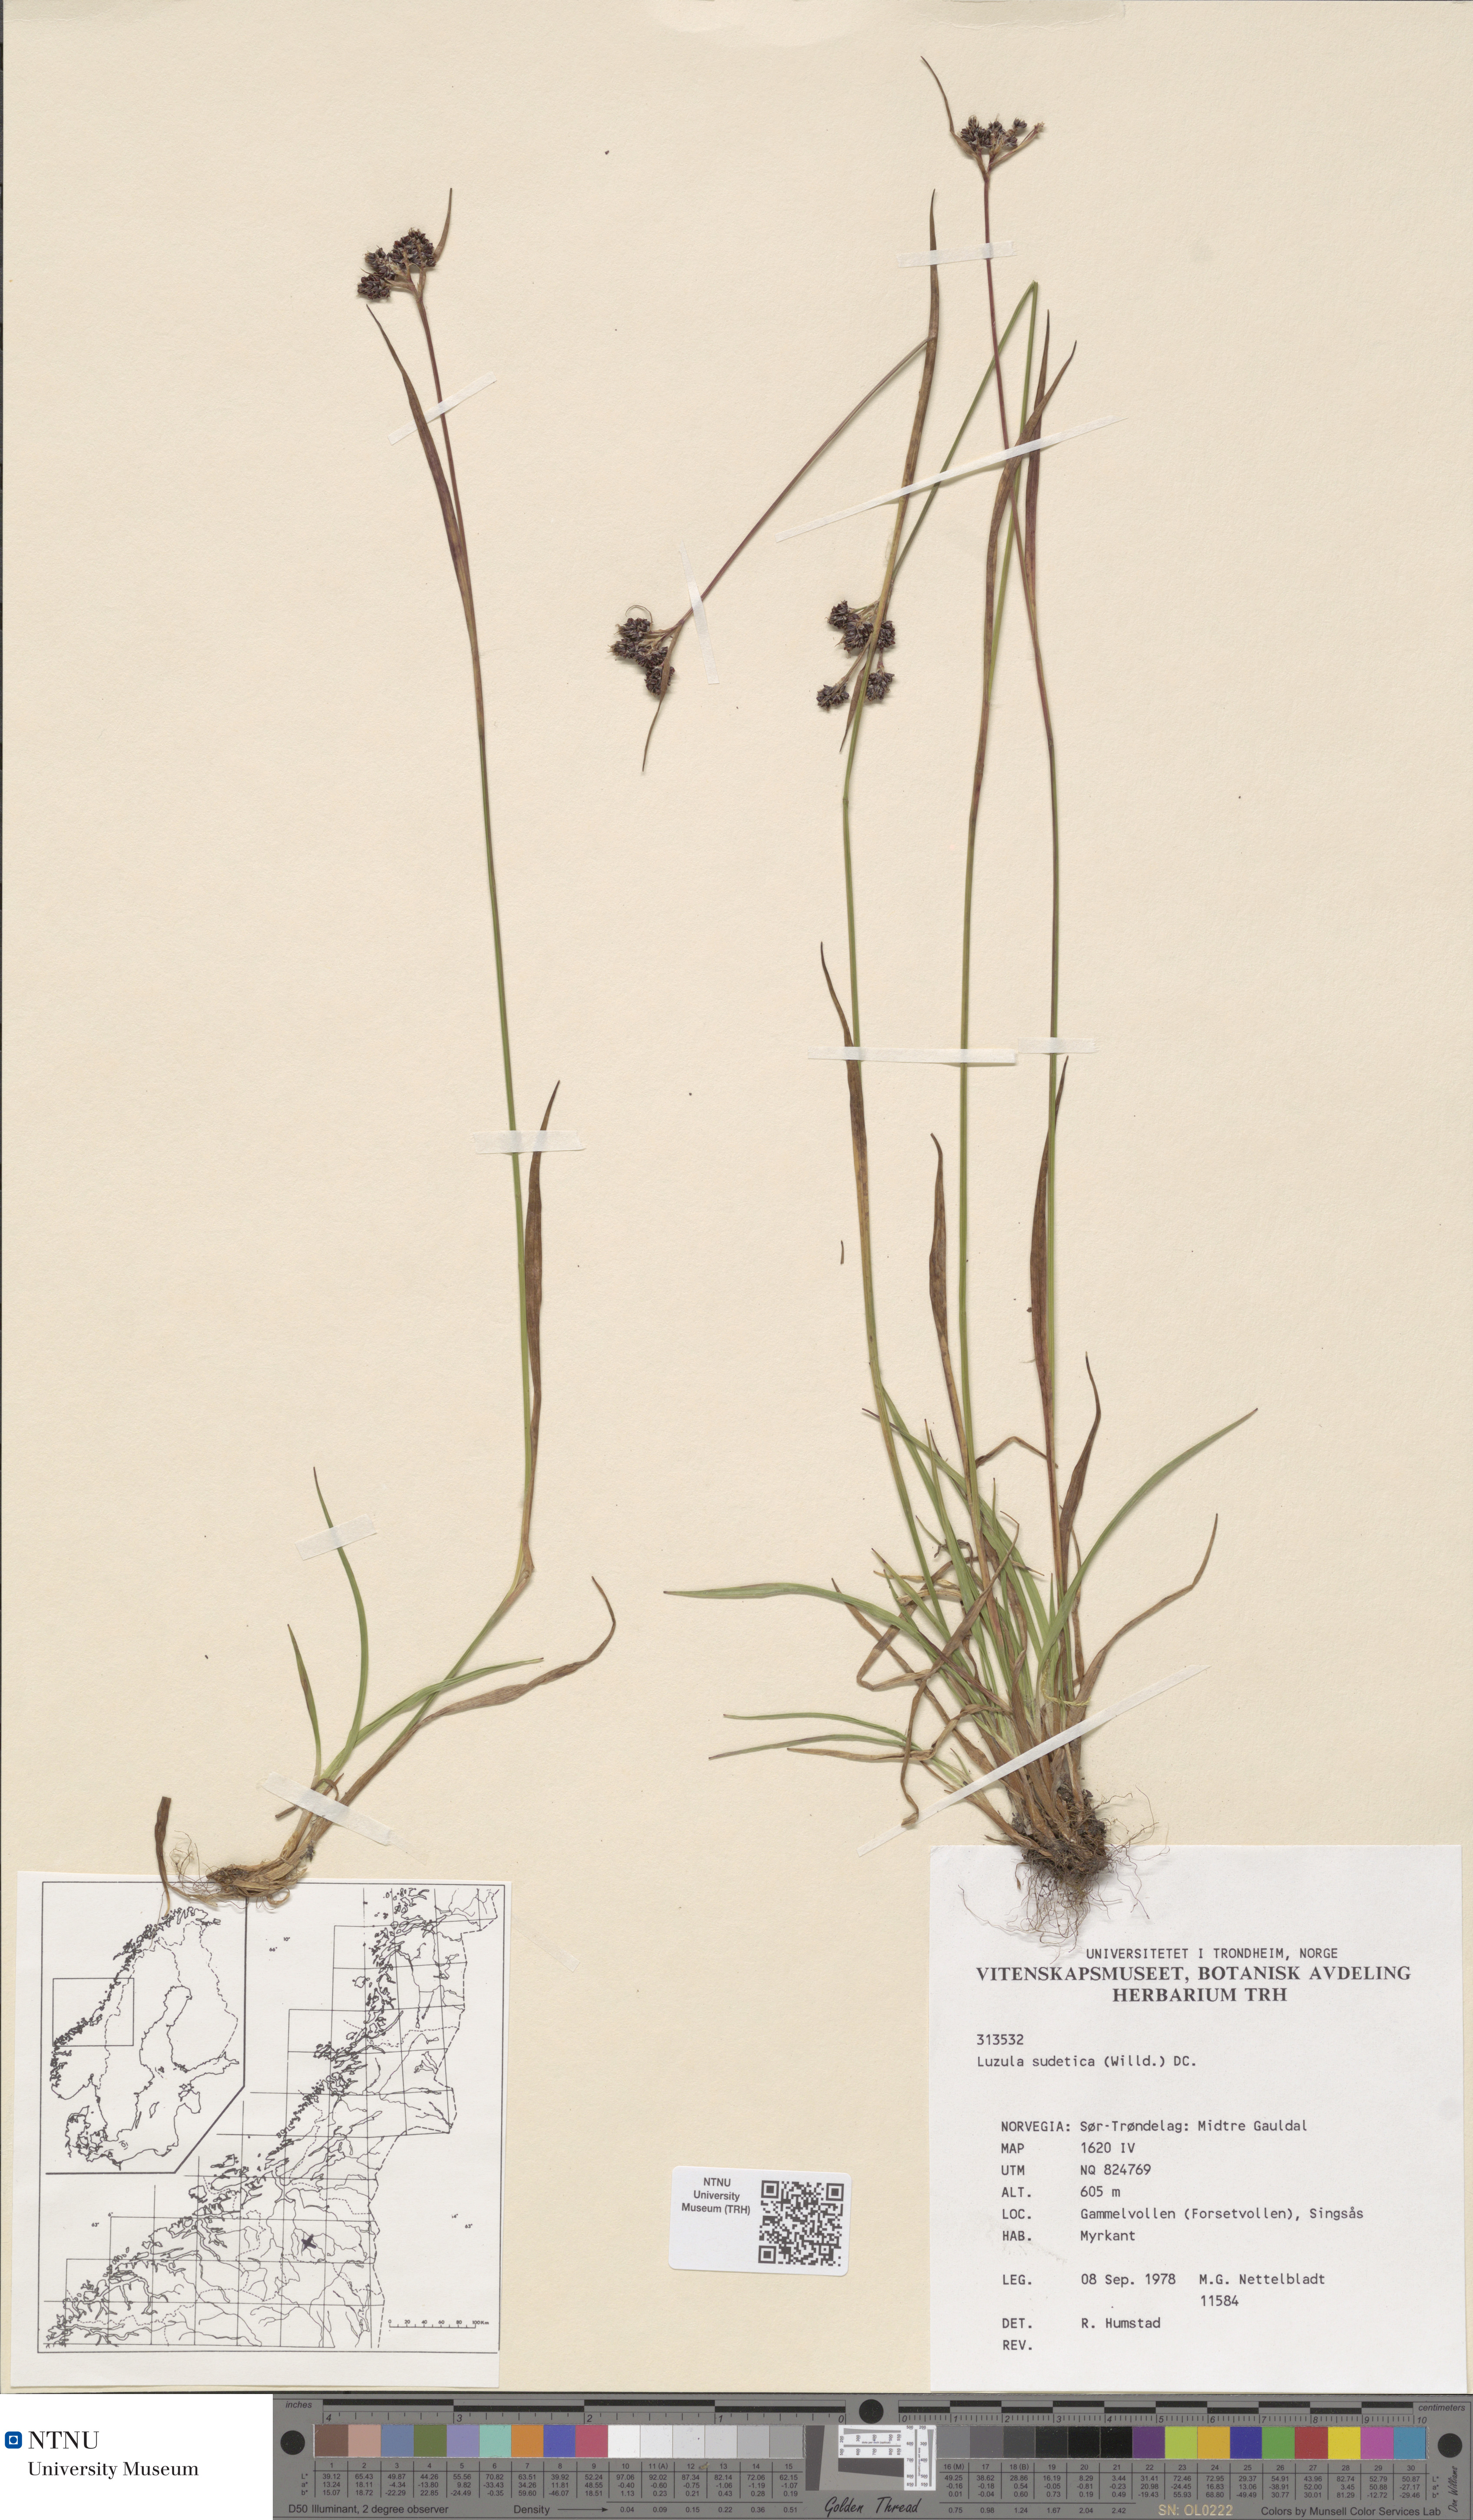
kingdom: Plantae
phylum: Tracheophyta
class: Liliopsida
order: Poales
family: Juncaceae
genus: Luzula
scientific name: Luzula sudetica
